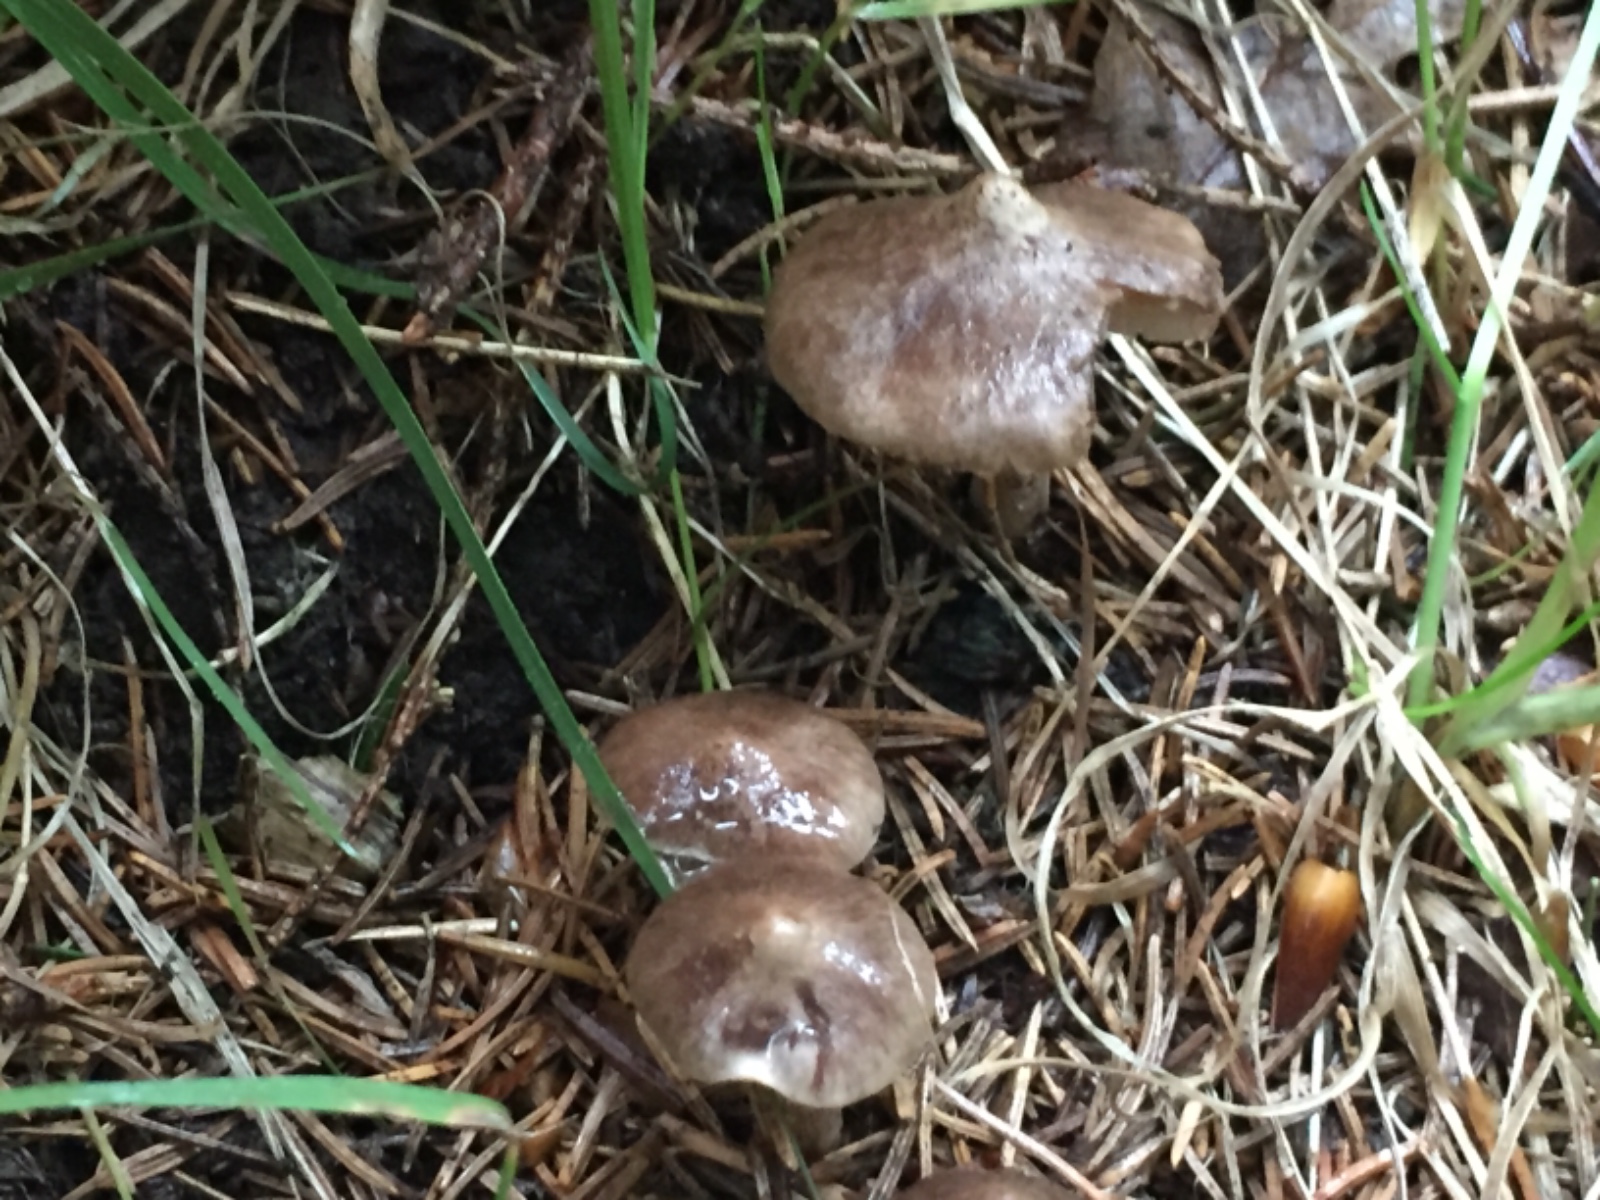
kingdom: Fungi
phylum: Basidiomycota
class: Agaricomycetes
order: Agaricales
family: Inocybaceae
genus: Inocybe
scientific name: Inocybe giacomi
